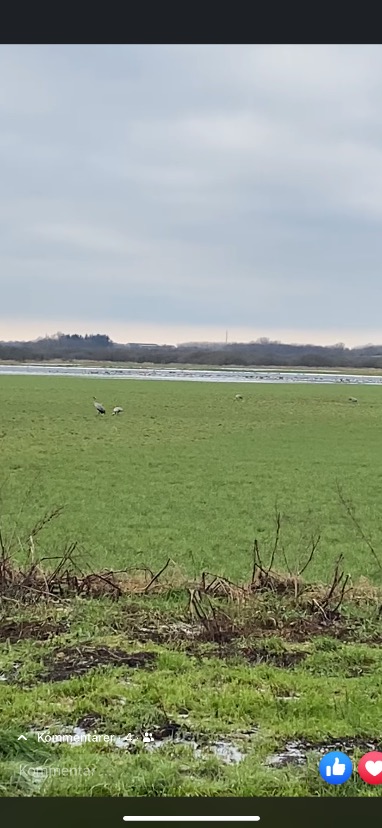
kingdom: Animalia
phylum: Chordata
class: Aves
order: Gruiformes
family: Gruidae
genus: Grus
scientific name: Grus grus
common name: Trane
